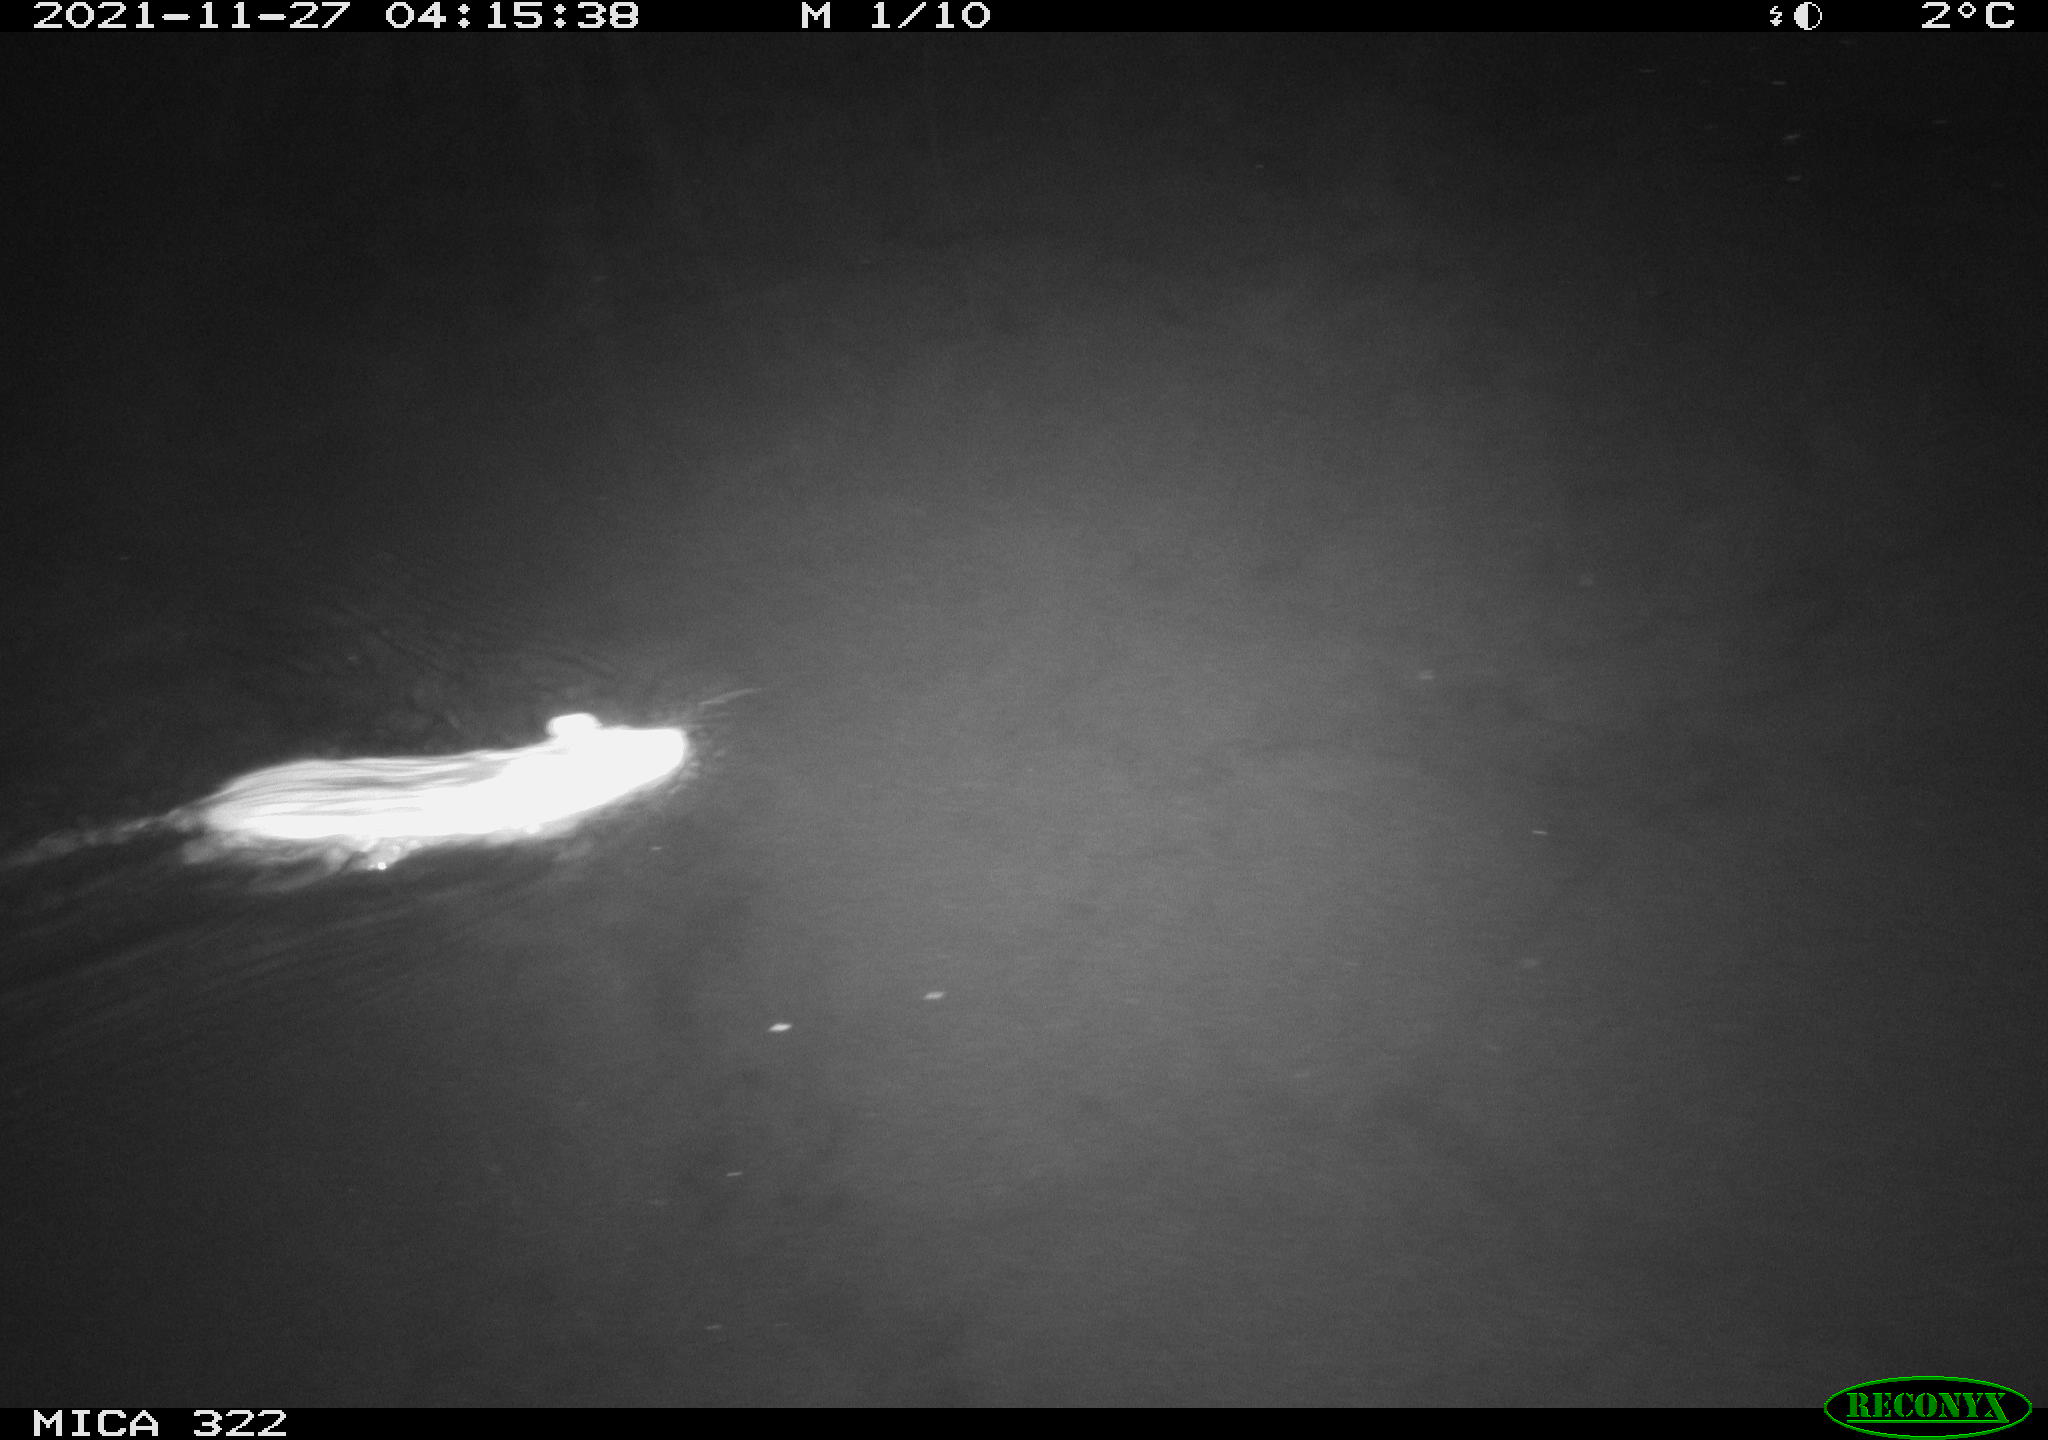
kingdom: Animalia
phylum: Chordata
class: Mammalia
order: Rodentia
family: Muridae
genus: Rattus
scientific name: Rattus norvegicus
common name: Brown rat
